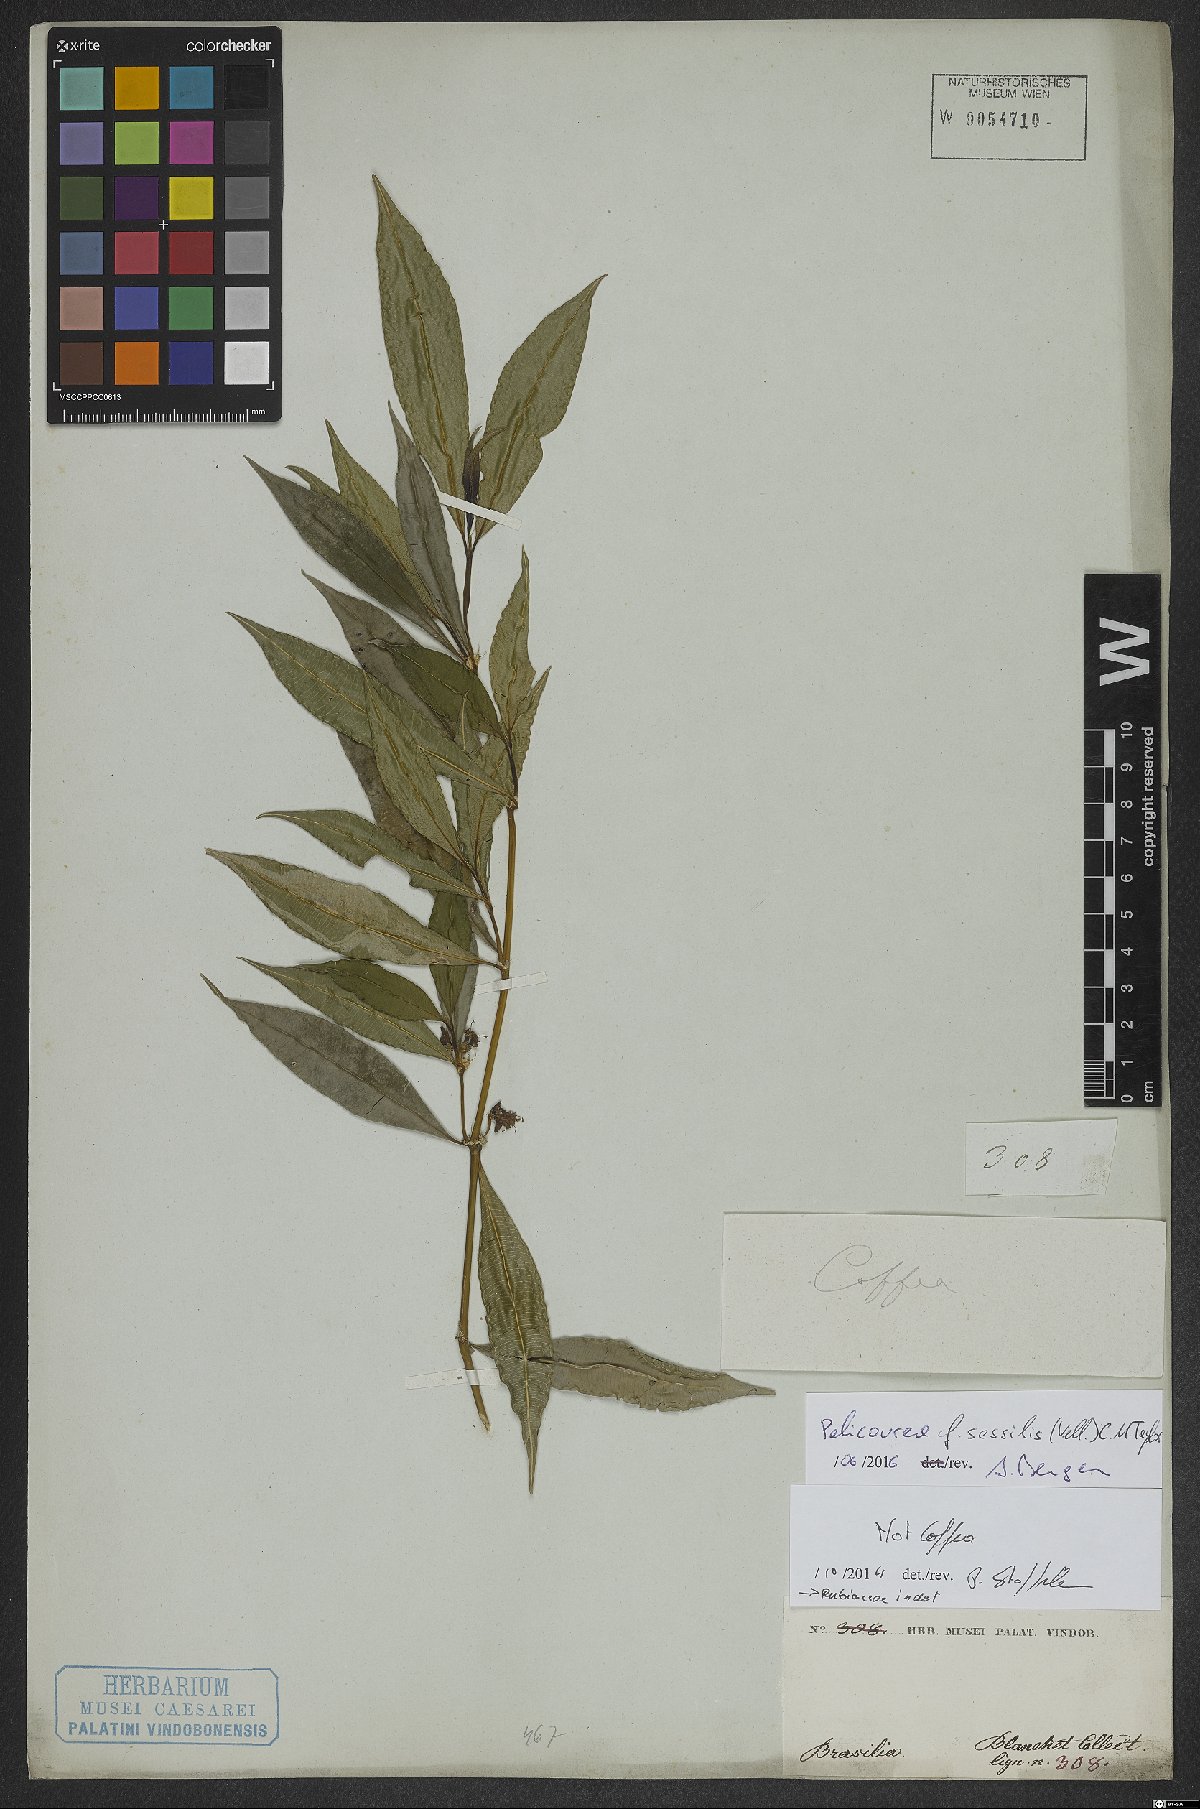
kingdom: Plantae
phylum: Tracheophyta
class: Magnoliopsida
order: Gentianales
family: Rubiaceae
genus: Palicourea
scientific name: Palicourea sessilis
